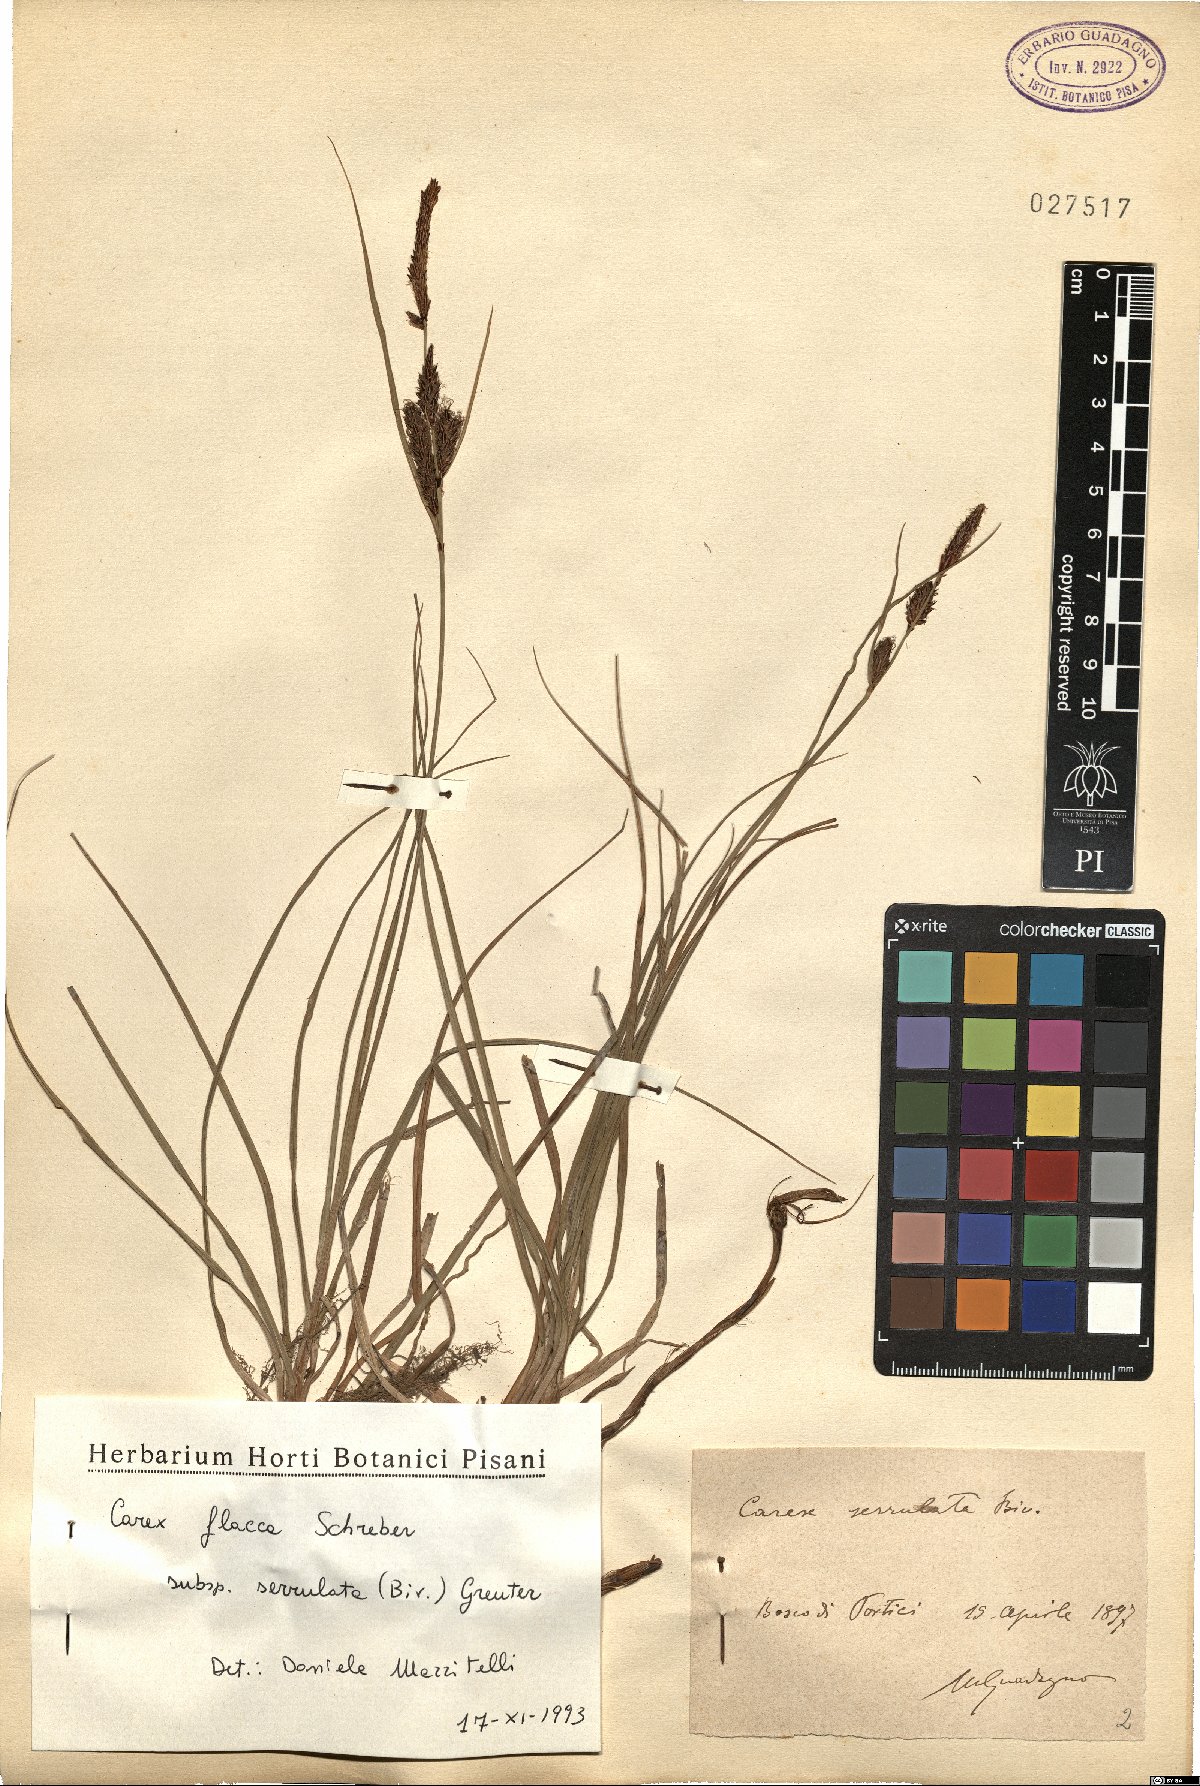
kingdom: Plantae
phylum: Tracheophyta
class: Liliopsida
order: Poales
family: Cyperaceae
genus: Carex
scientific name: Carex flacca
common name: Glaucous sedge
